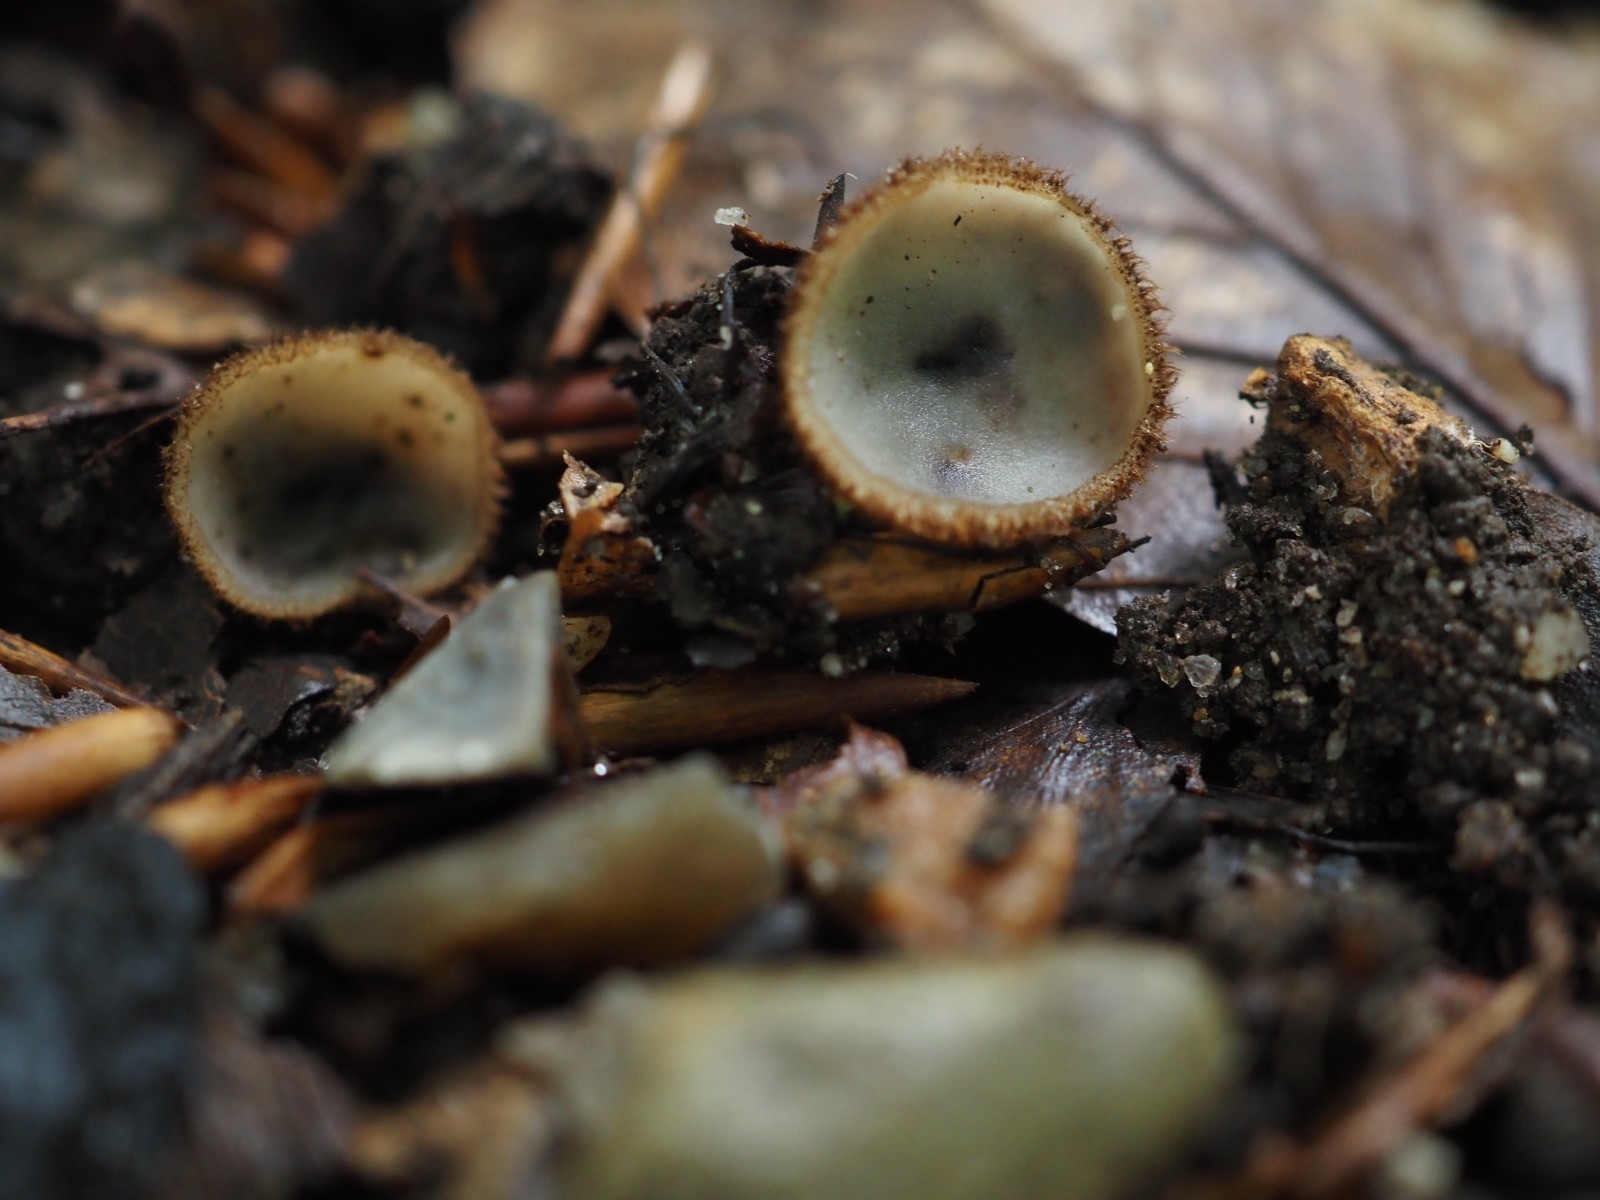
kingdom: Fungi
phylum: Ascomycota
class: Pezizomycetes
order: Pezizales
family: Pyronemataceae
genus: Humaria
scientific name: Humaria hemisphaerica
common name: halvkugleformet børstebæger
